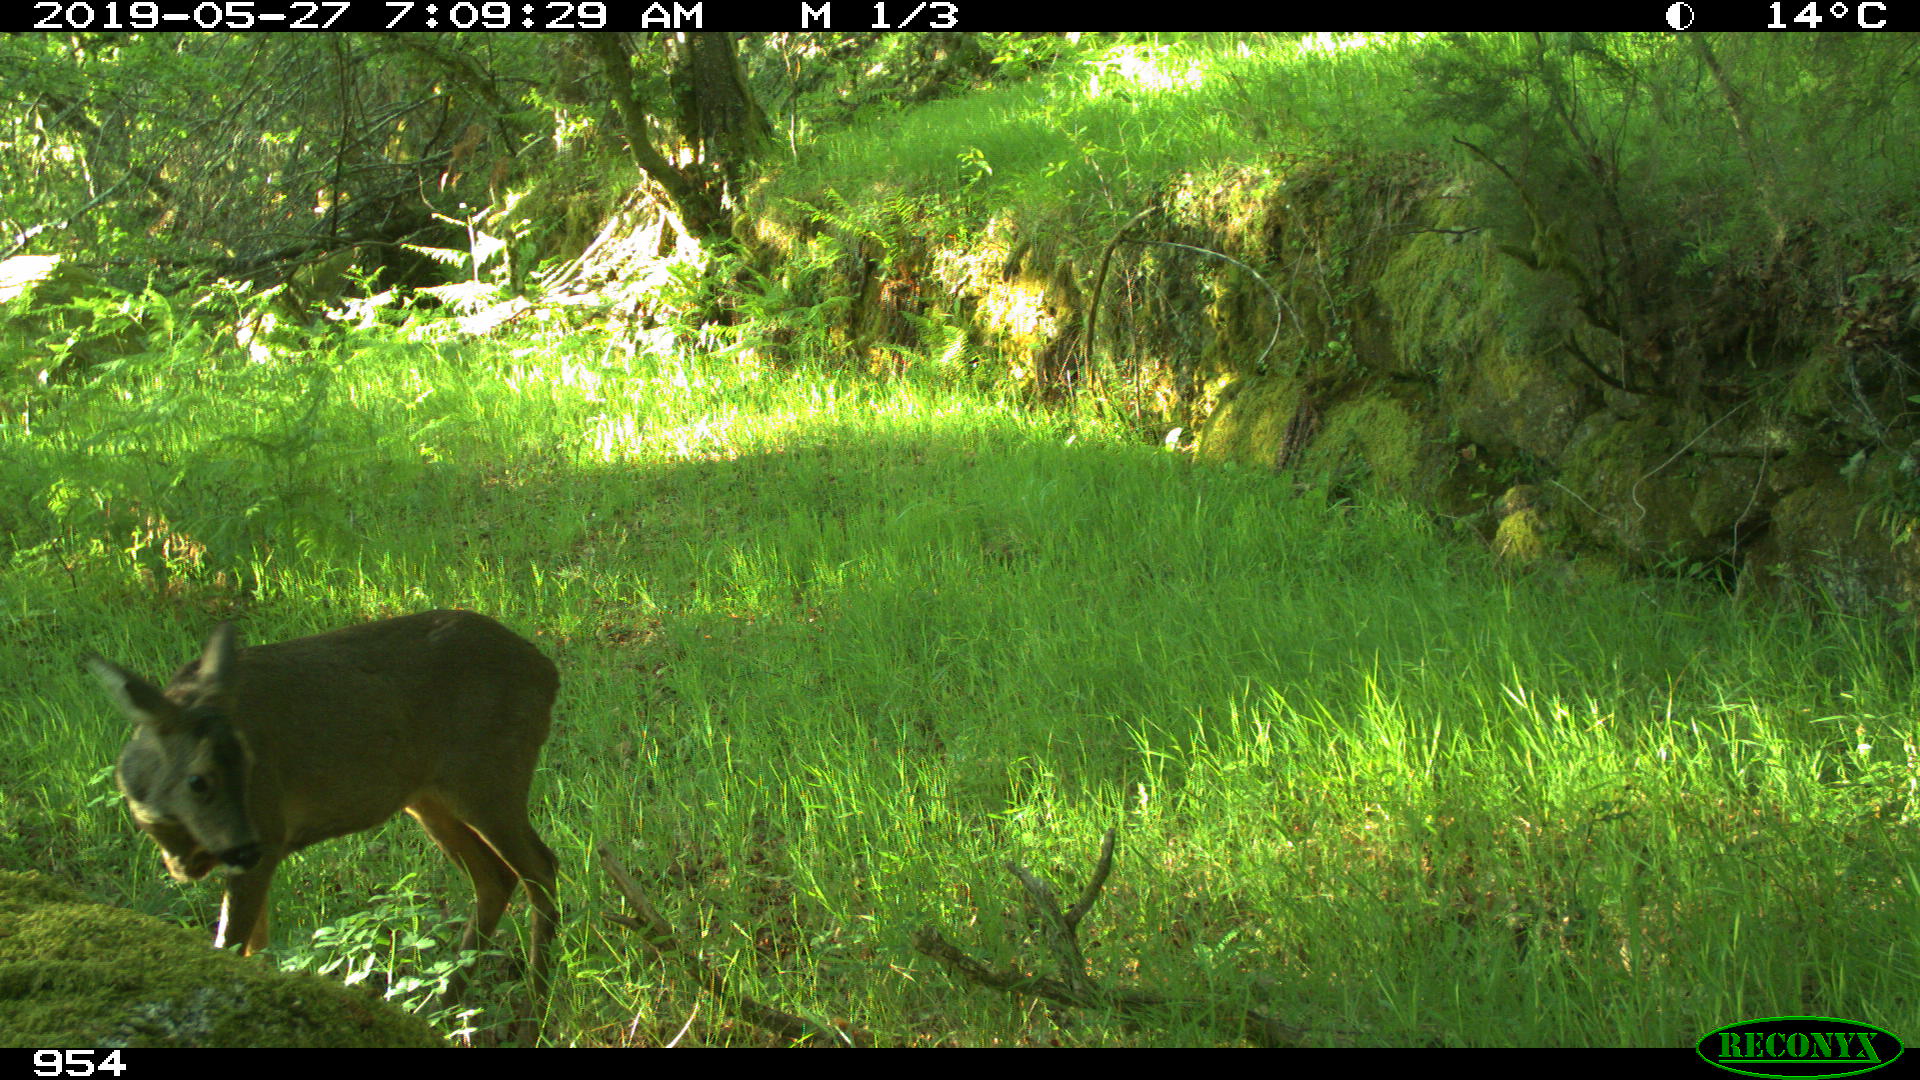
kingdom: Animalia
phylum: Chordata
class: Mammalia
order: Artiodactyla
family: Cervidae
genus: Capreolus
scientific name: Capreolus capreolus
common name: Western roe deer
